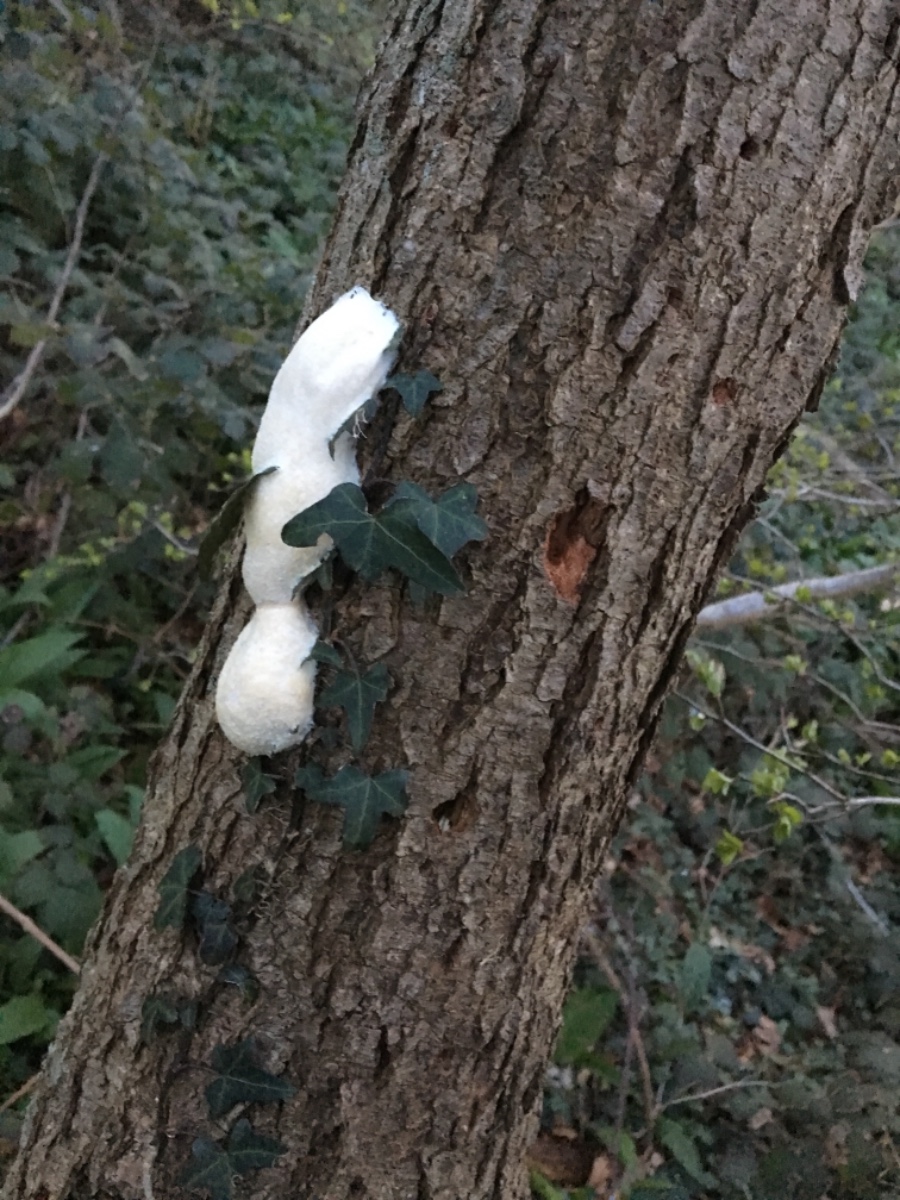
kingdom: Protozoa
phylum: Mycetozoa
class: Myxomycetes
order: Cribrariales
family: Tubiferaceae
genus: Reticularia
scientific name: Reticularia lycoperdon
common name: skinnende støvpude
